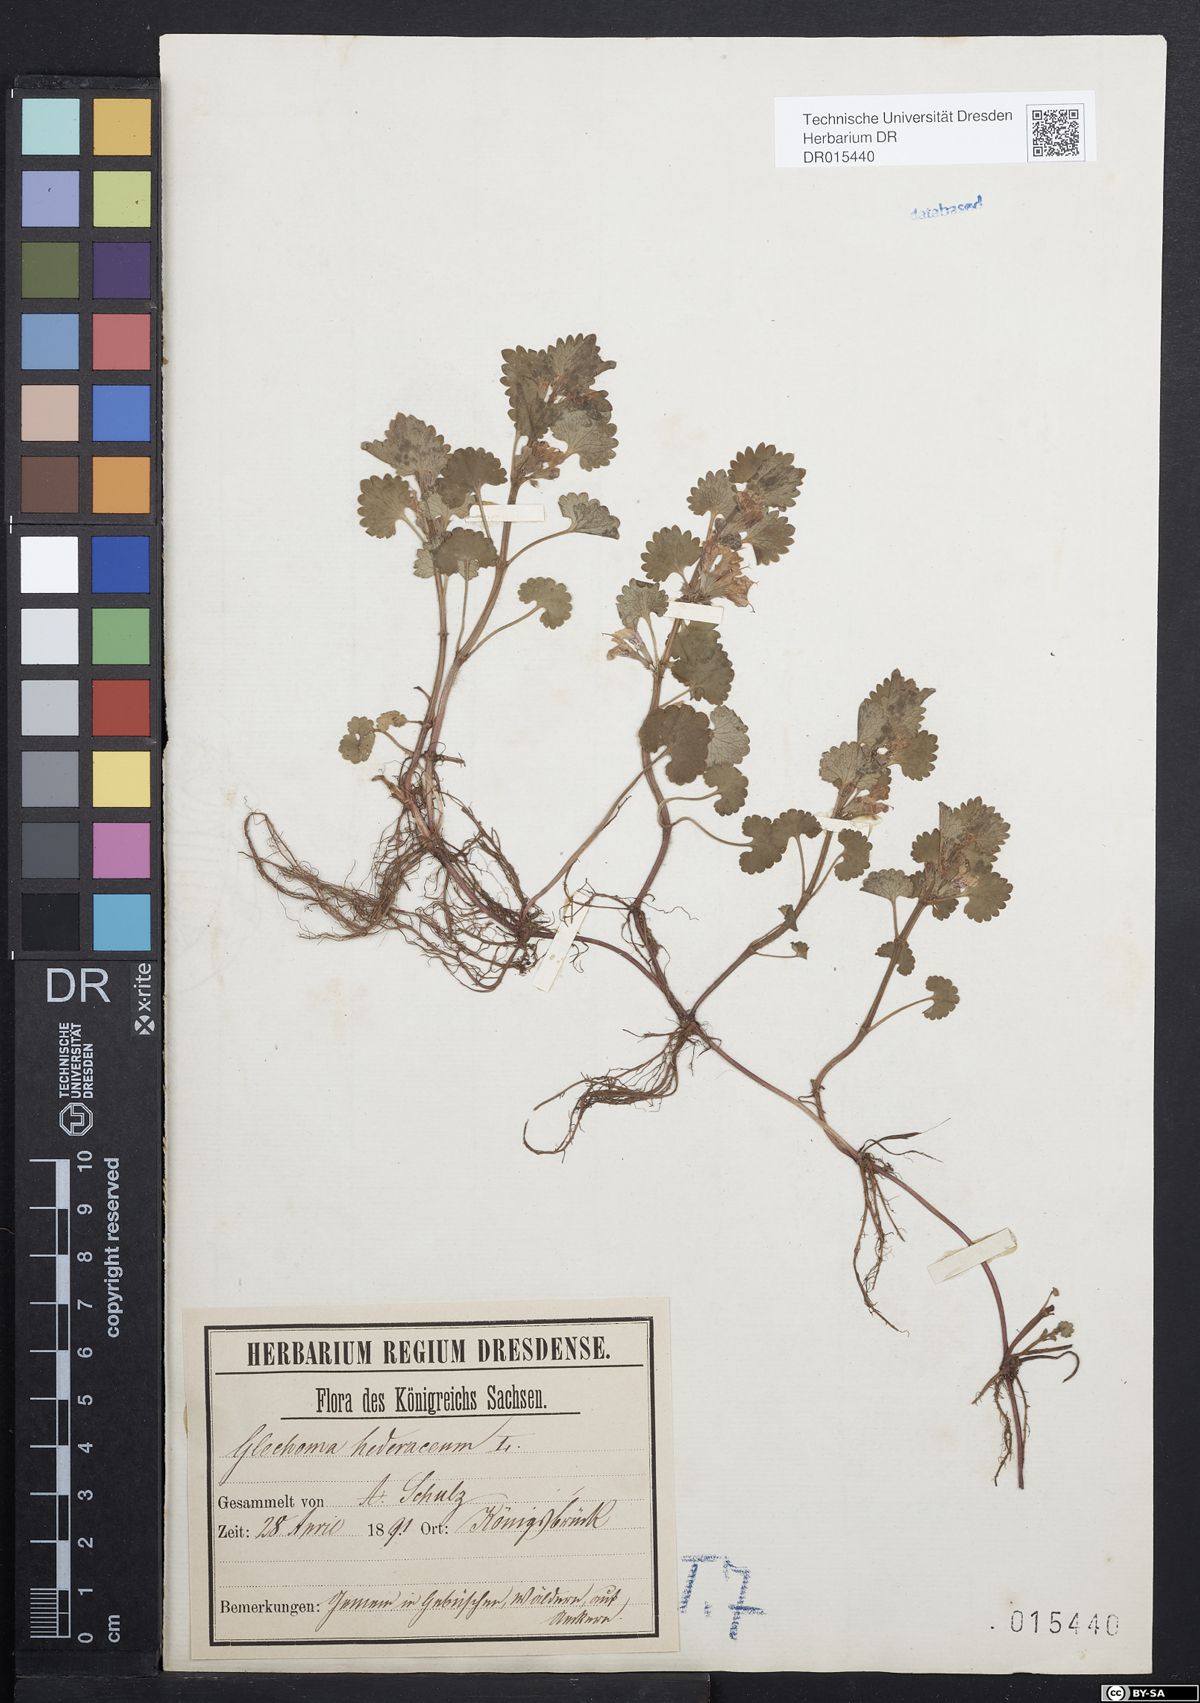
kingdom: Plantae
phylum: Tracheophyta
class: Magnoliopsida
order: Lamiales
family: Lamiaceae
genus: Glechoma
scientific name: Glechoma hederacea
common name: Ground ivy
